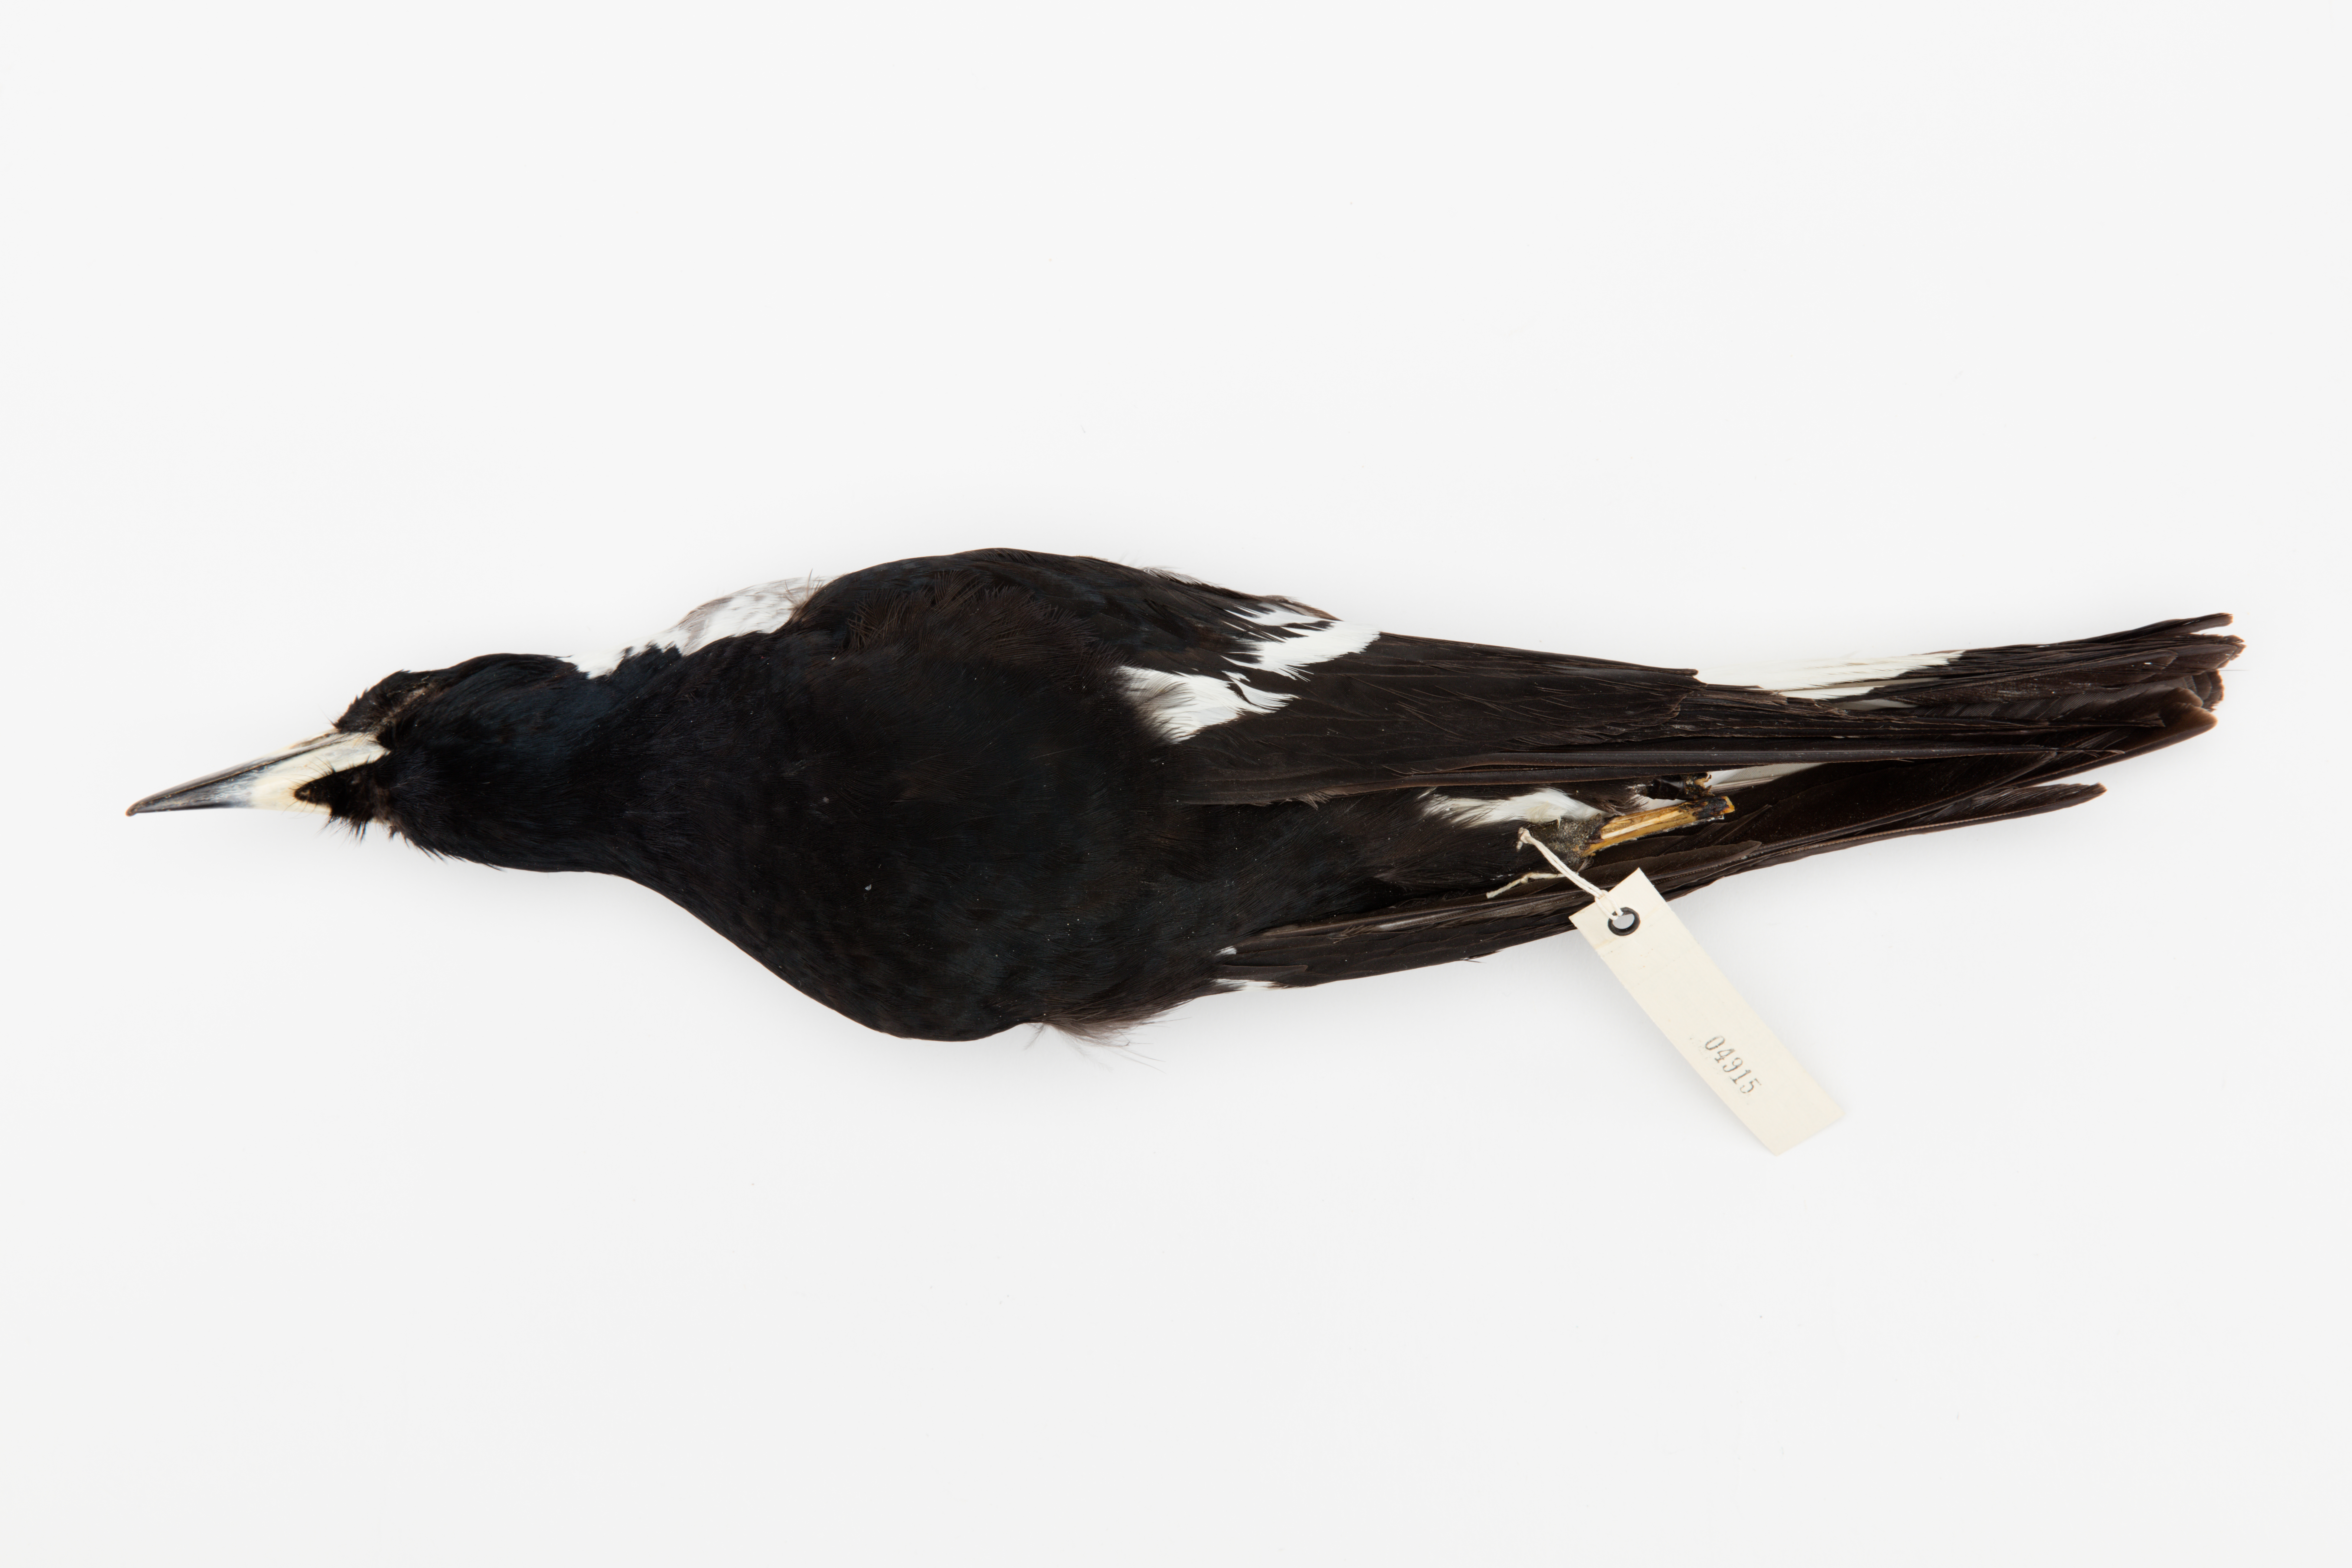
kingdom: Animalia
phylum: Chordata
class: Aves
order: Passeriformes
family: Cracticidae
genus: Gymnorhina
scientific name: Gymnorhina tibicen
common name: Australian magpie
